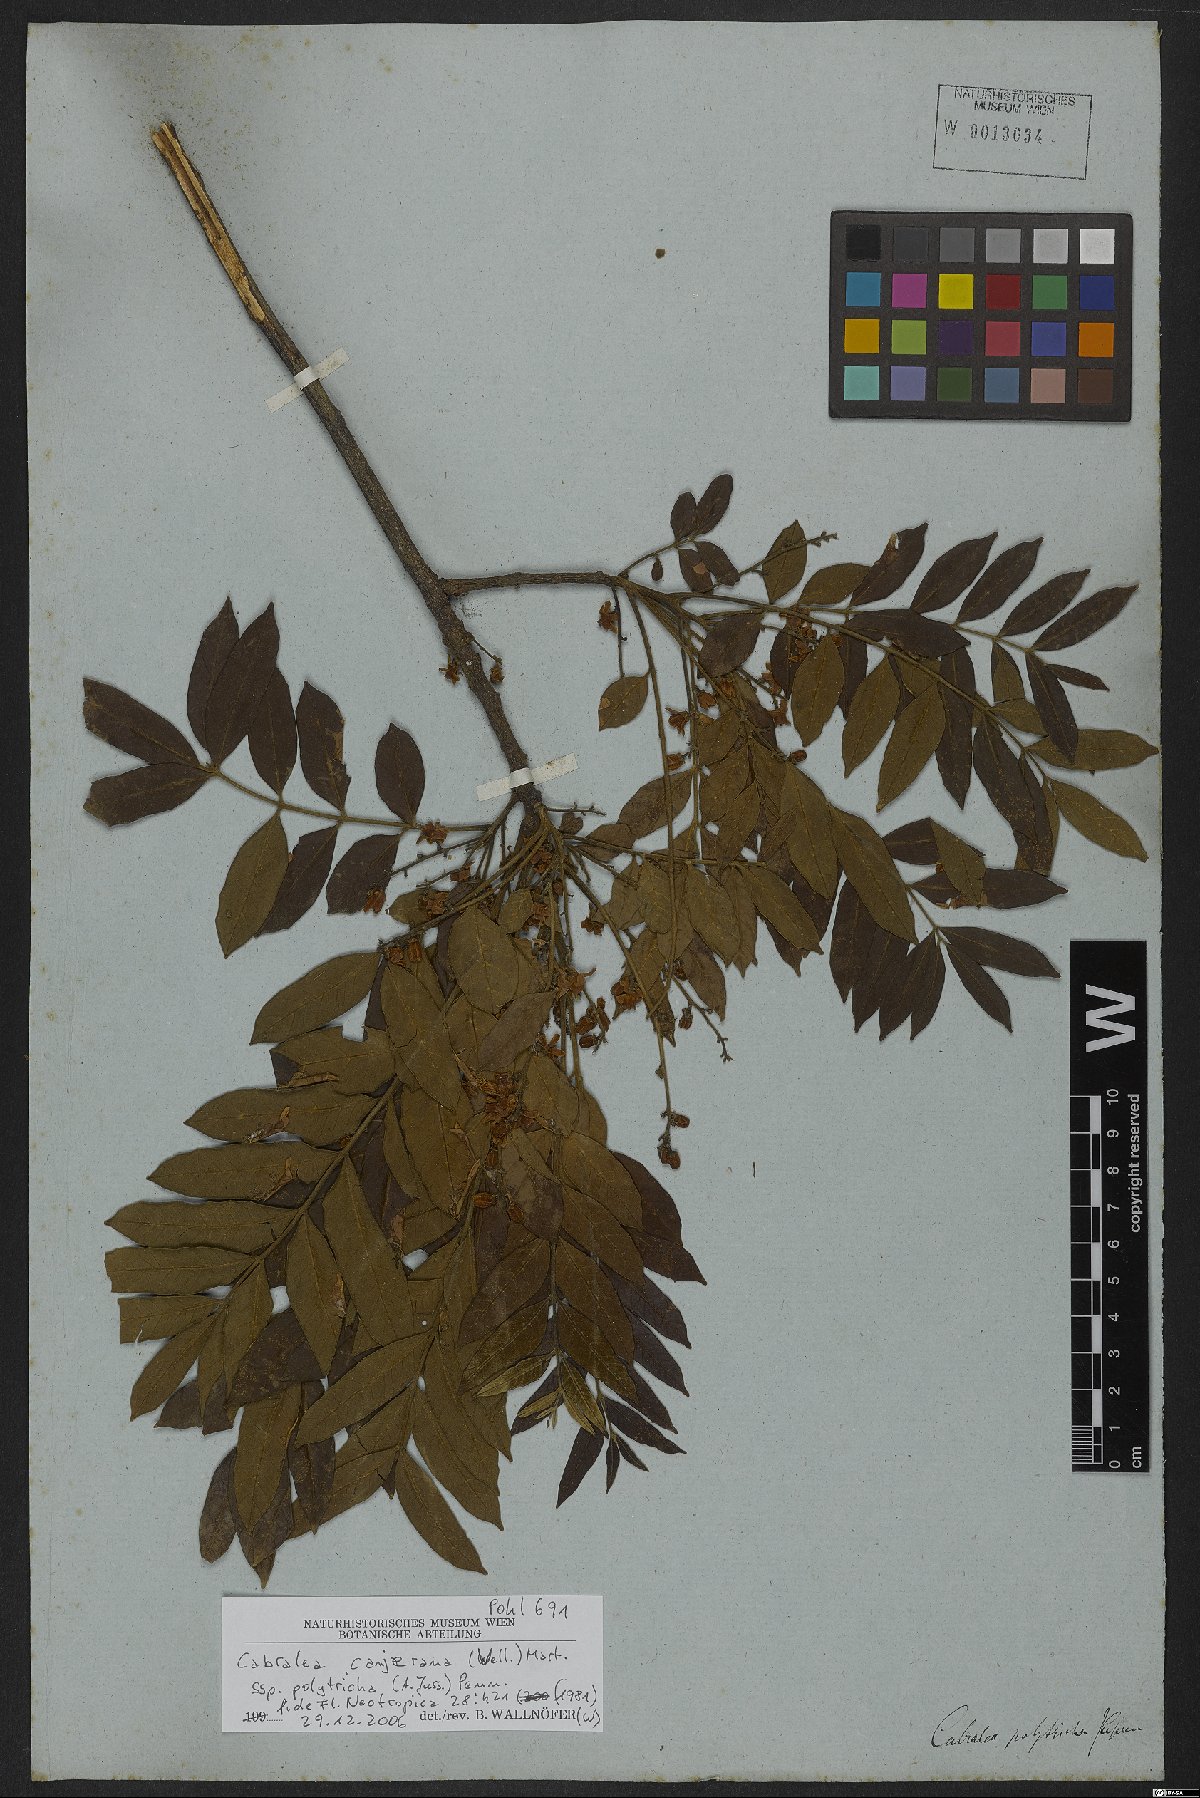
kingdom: Plantae
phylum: Tracheophyta
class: Magnoliopsida
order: Sapindales
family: Meliaceae
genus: Cabralea
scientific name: Cabralea canjerana
